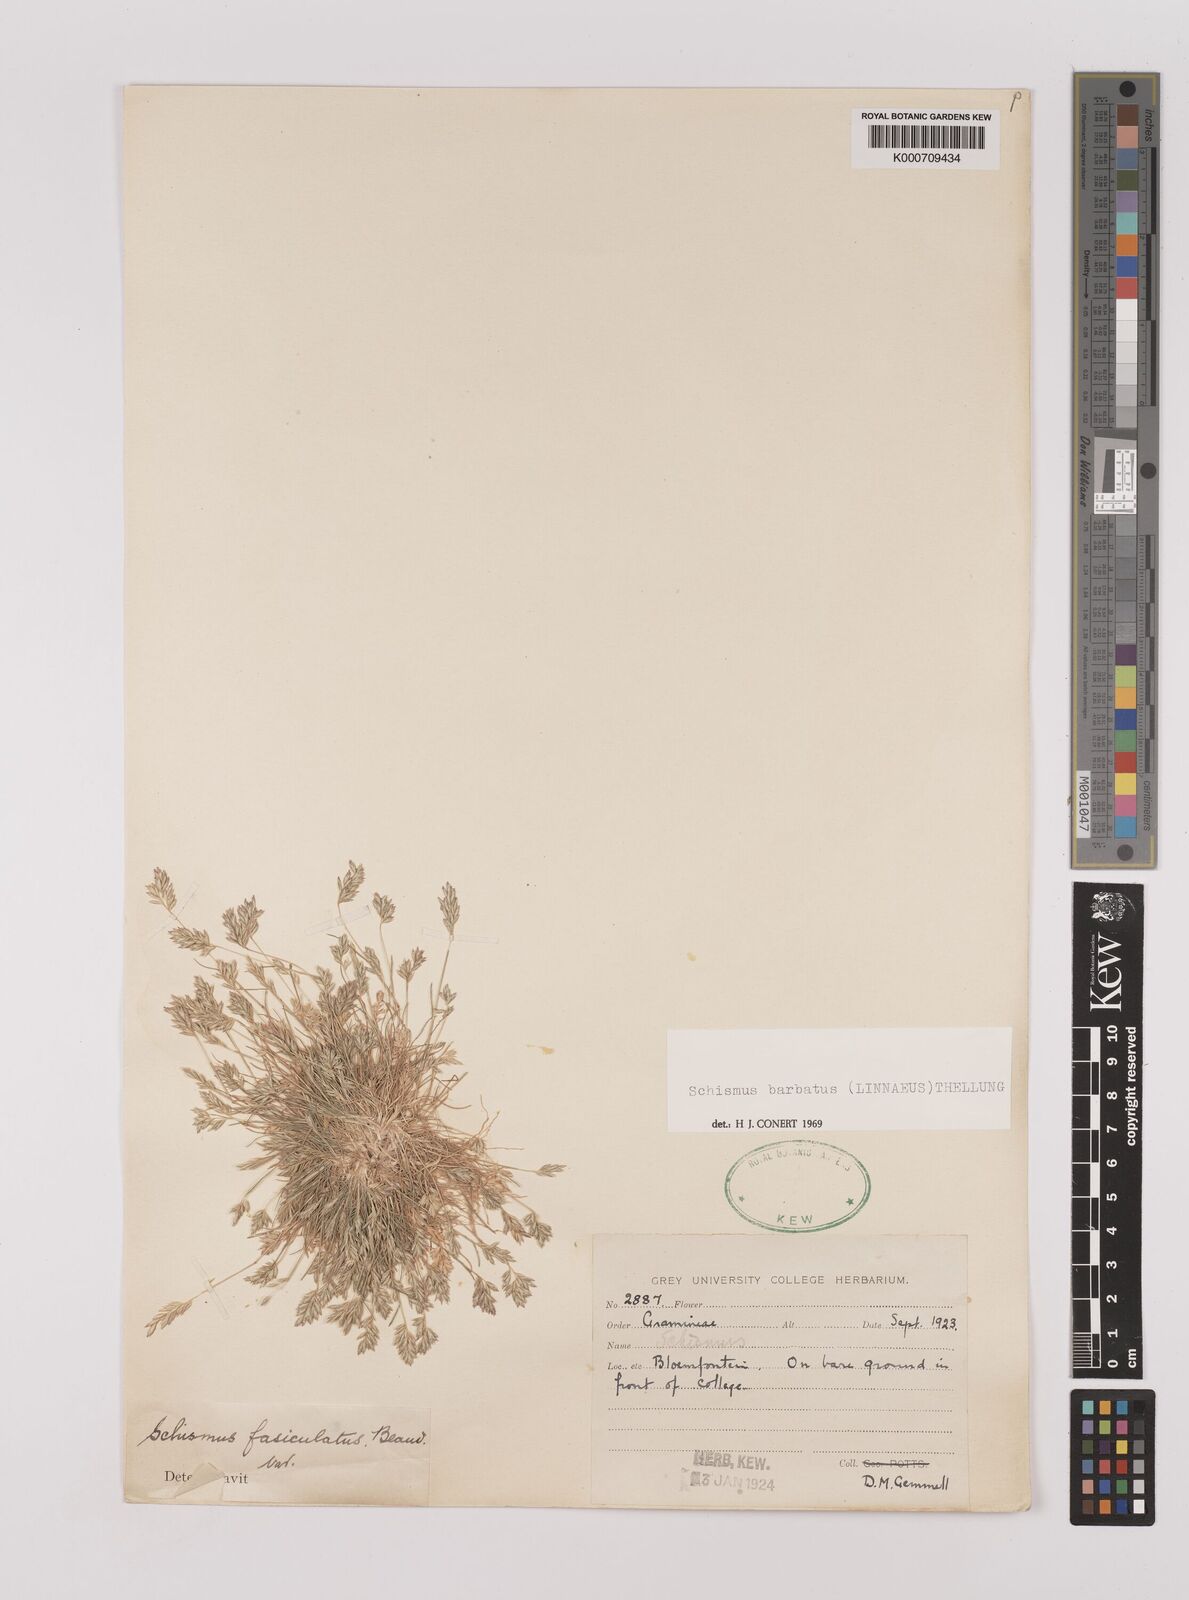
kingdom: Plantae
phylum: Tracheophyta
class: Liliopsida
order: Poales
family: Poaceae
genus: Schismus
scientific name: Schismus barbatus
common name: Kelch-grass
